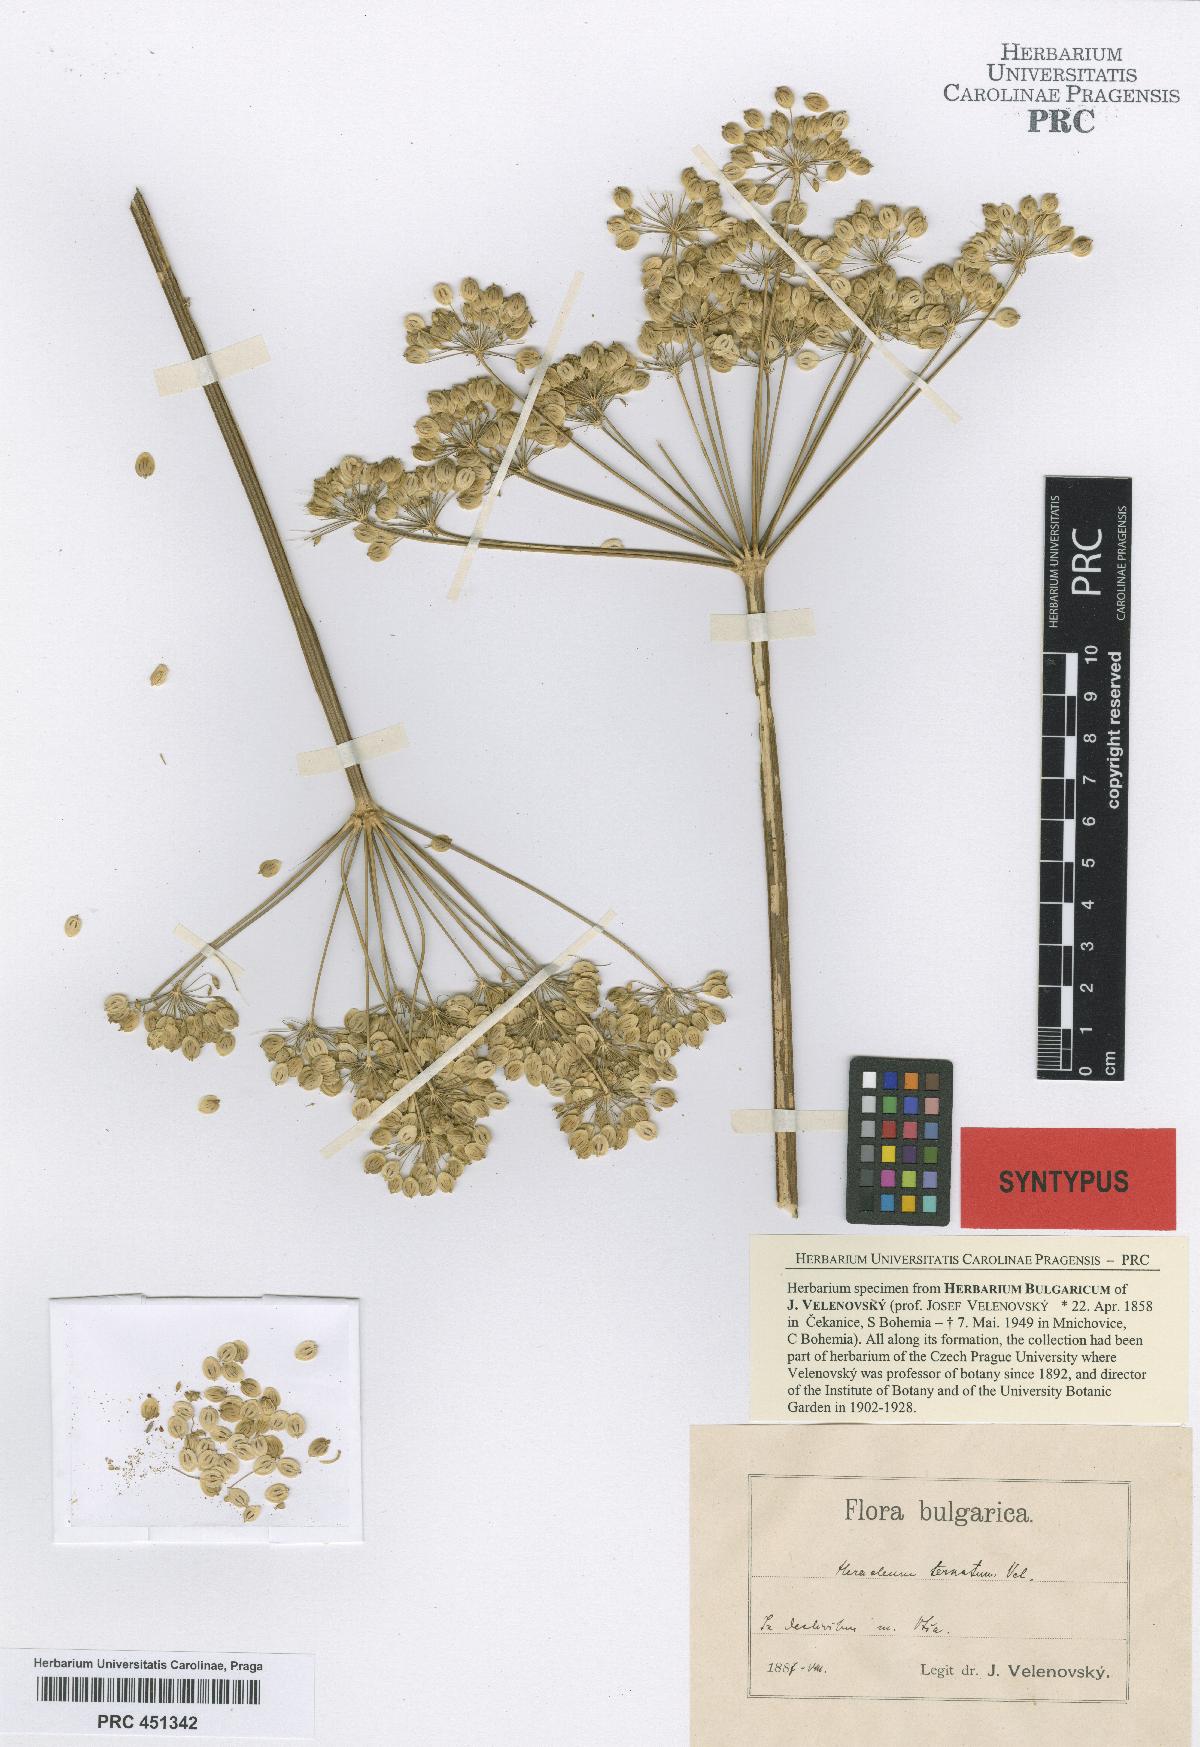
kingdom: Plantae
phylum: Tracheophyta
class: Magnoliopsida
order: Apiales
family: Apiaceae
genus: Heracleum
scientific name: Heracleum sphondylium
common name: Hogweed
